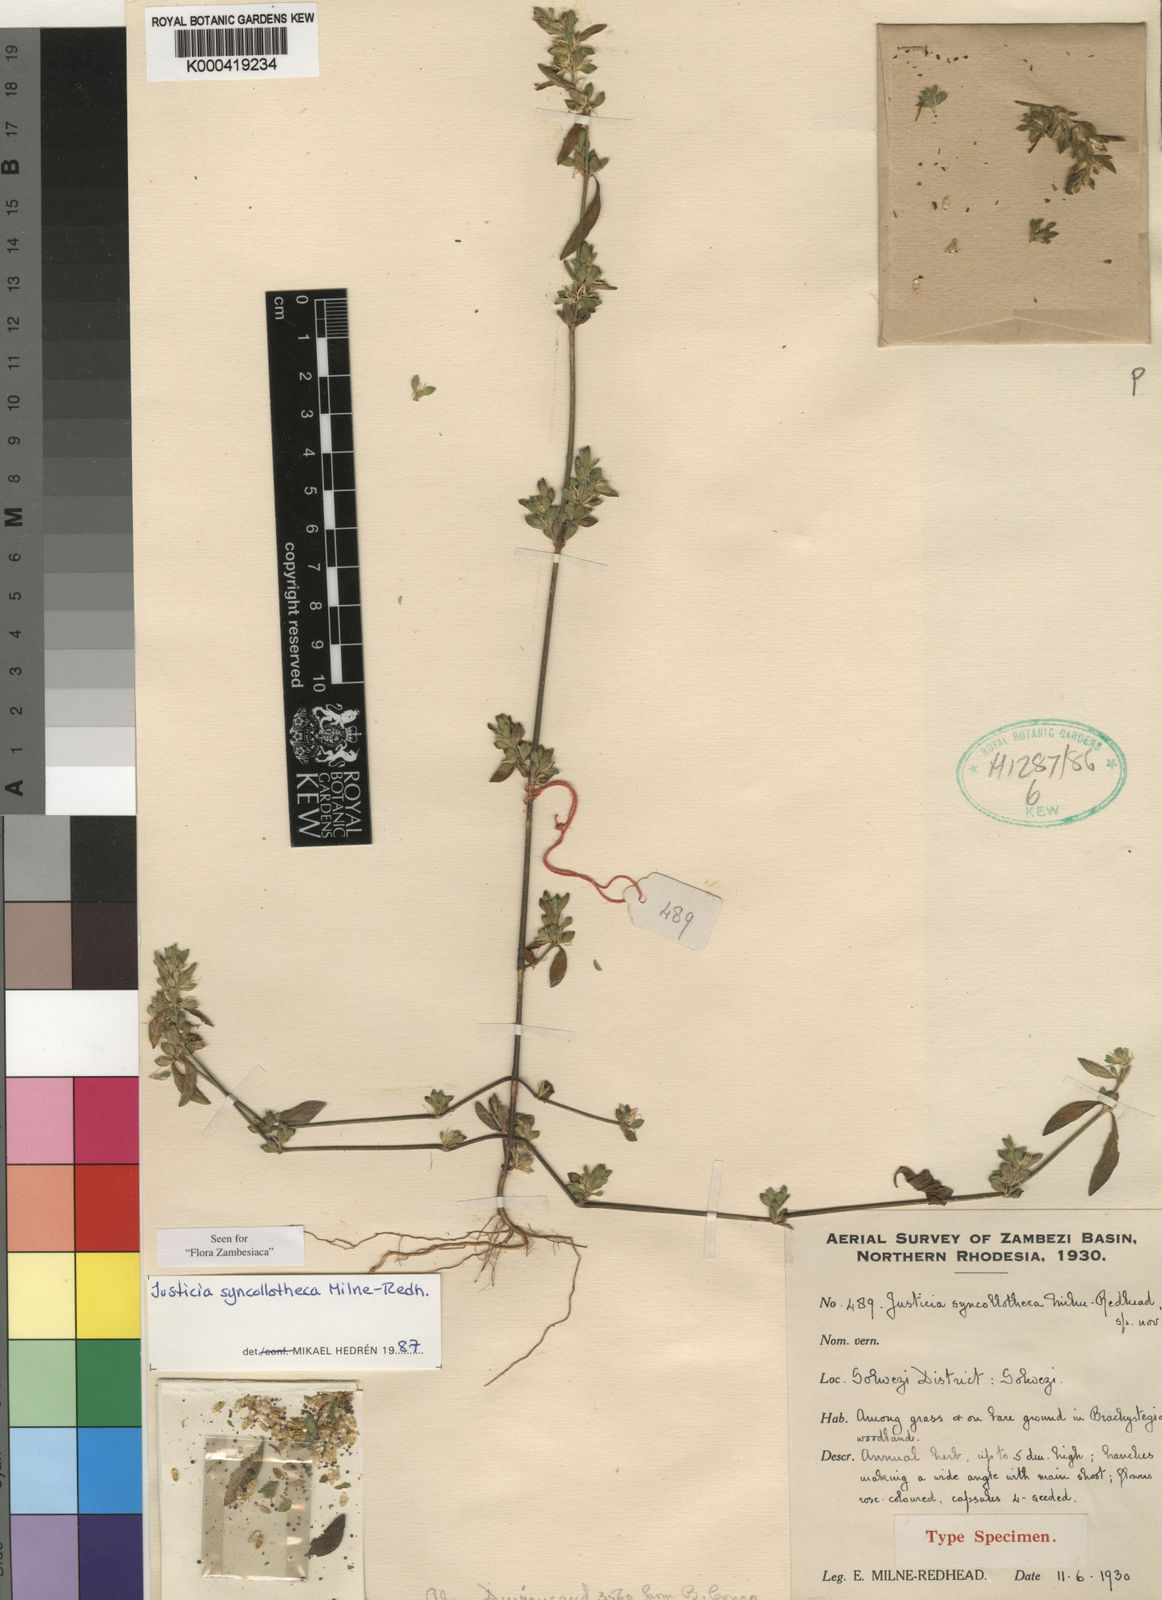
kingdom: Plantae
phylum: Tracheophyta
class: Magnoliopsida
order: Lamiales
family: Acanthaceae
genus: Justicia
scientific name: Justicia syncollotheca
